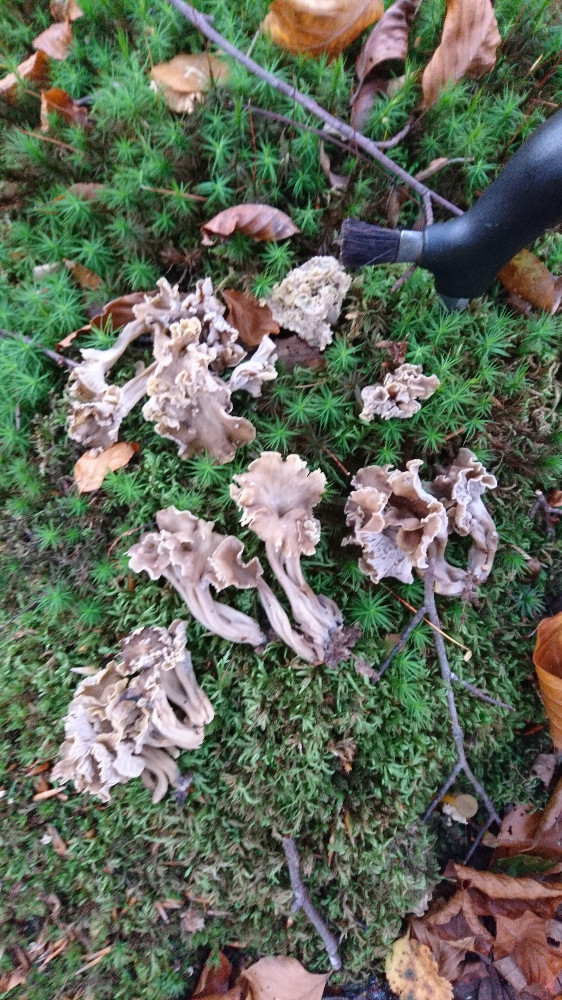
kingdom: Fungi
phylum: Basidiomycota
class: Agaricomycetes
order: Cantharellales
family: Hydnaceae
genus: Craterellus
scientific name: Craterellus undulatus
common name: liden kantarel
